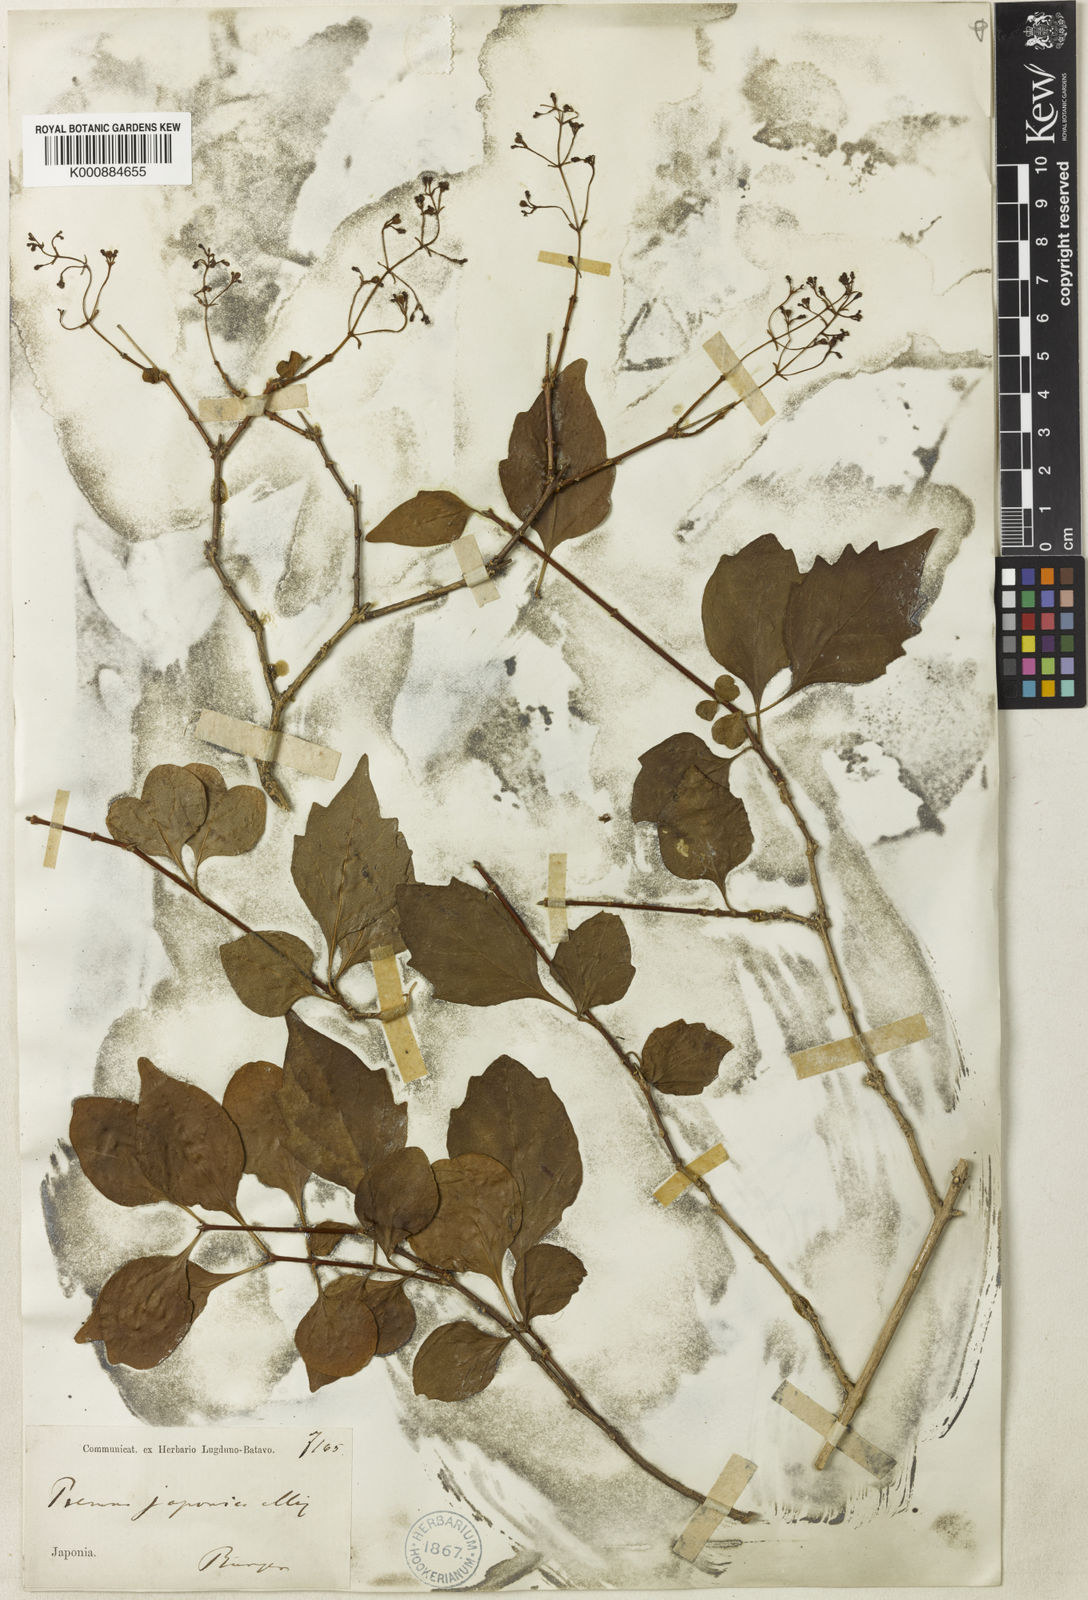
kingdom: Plantae
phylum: Tracheophyta
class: Magnoliopsida
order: Lamiales
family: Lamiaceae
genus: Premna
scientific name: Premna microphylla
